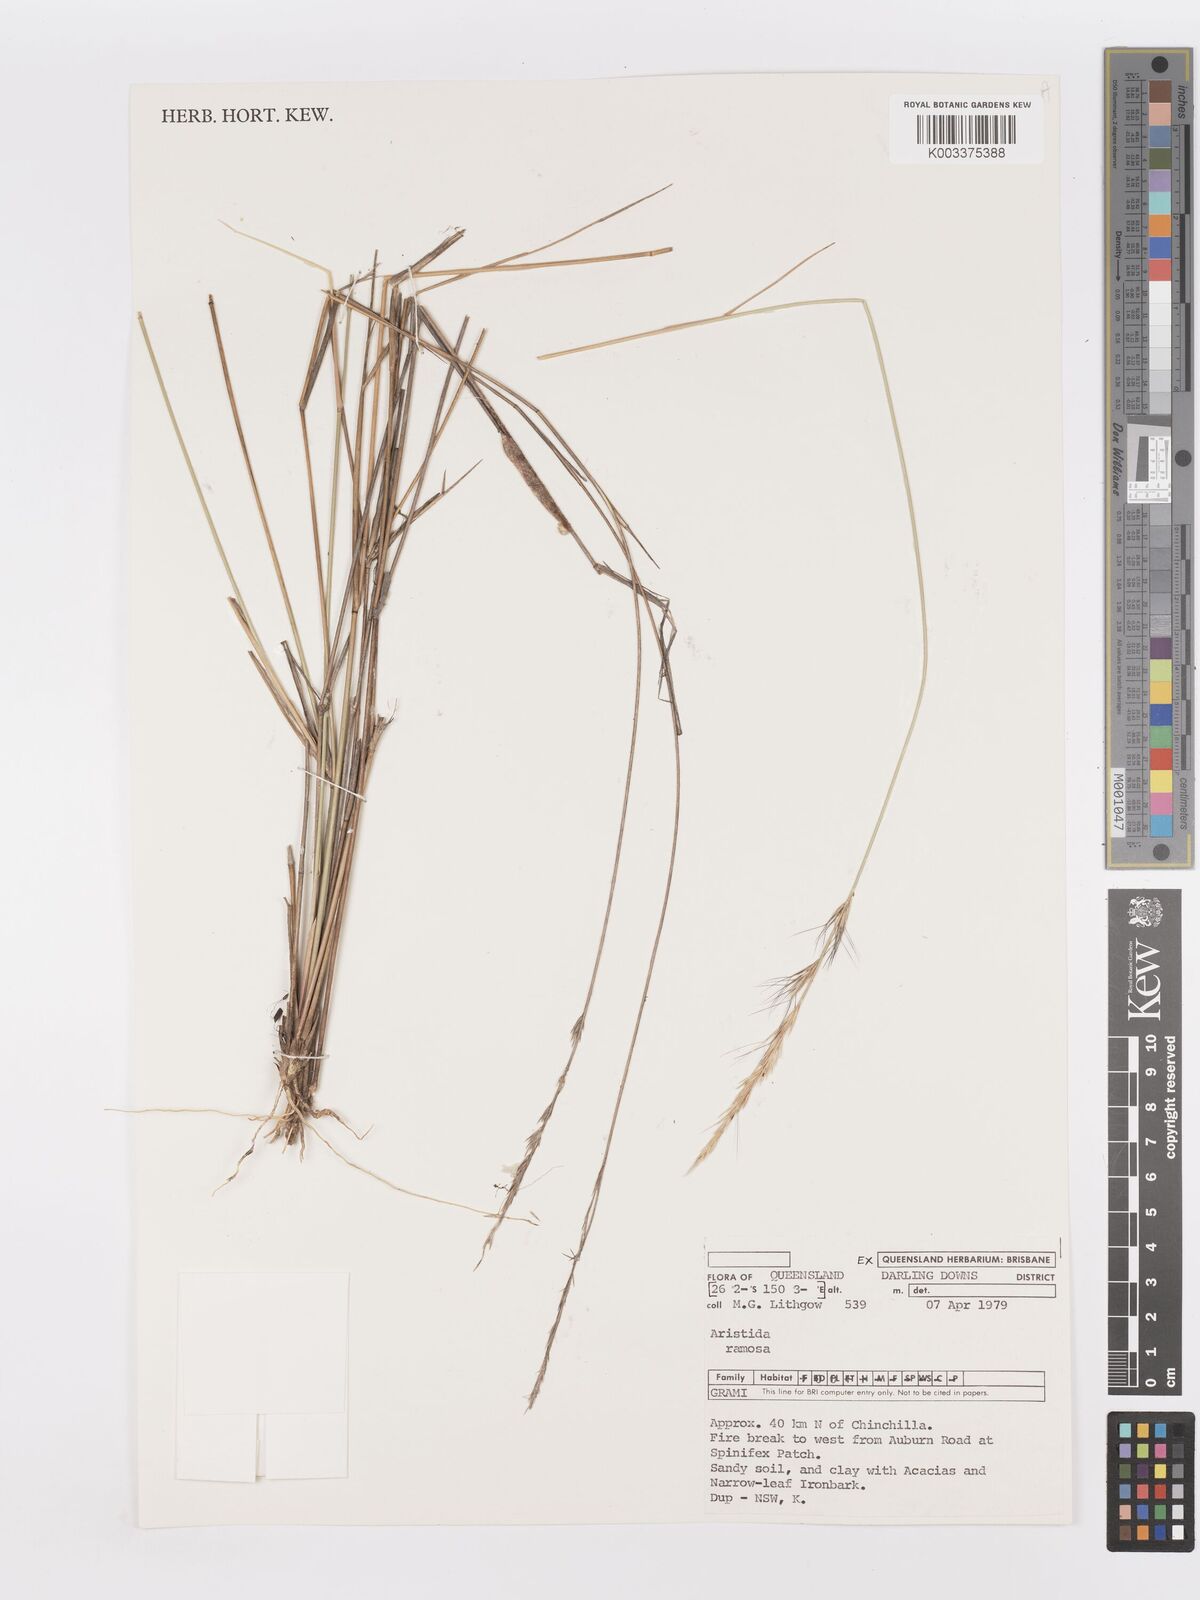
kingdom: Plantae
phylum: Tracheophyta
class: Liliopsida
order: Poales
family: Poaceae
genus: Aristida
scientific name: Aristida ramosa
